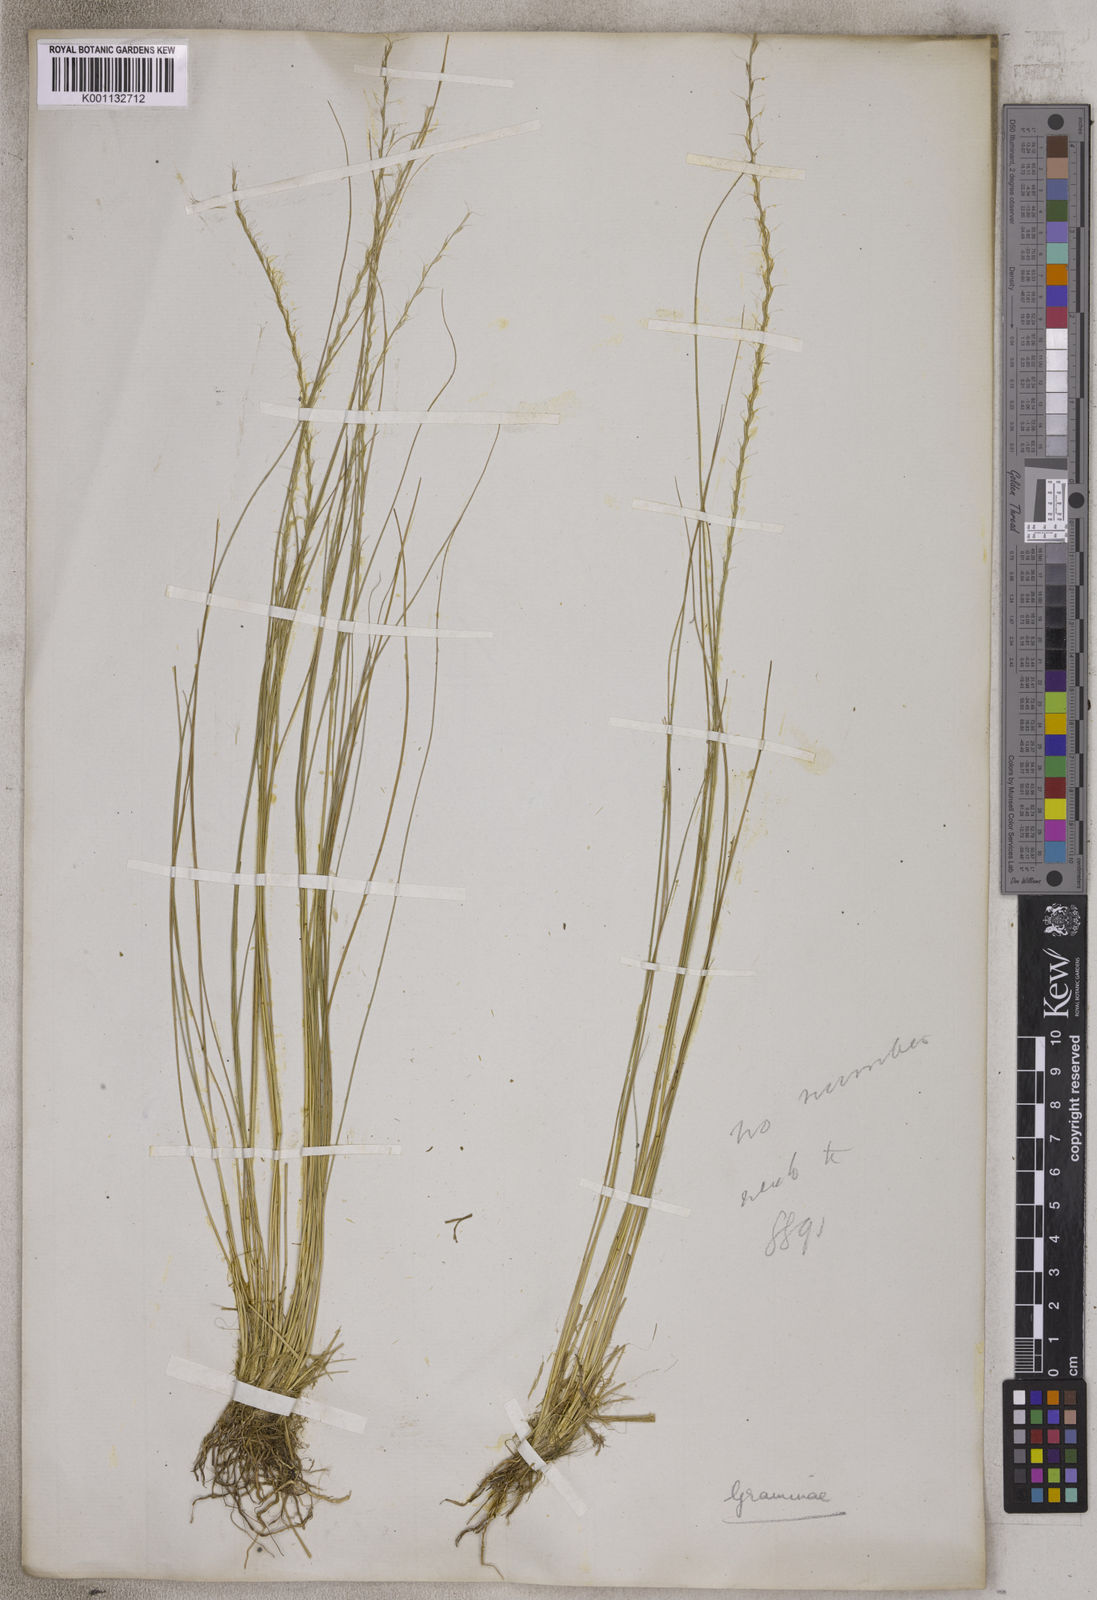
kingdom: Plantae
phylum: Tracheophyta
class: Liliopsida
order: Poales
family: Poaceae
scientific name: Poaceae
